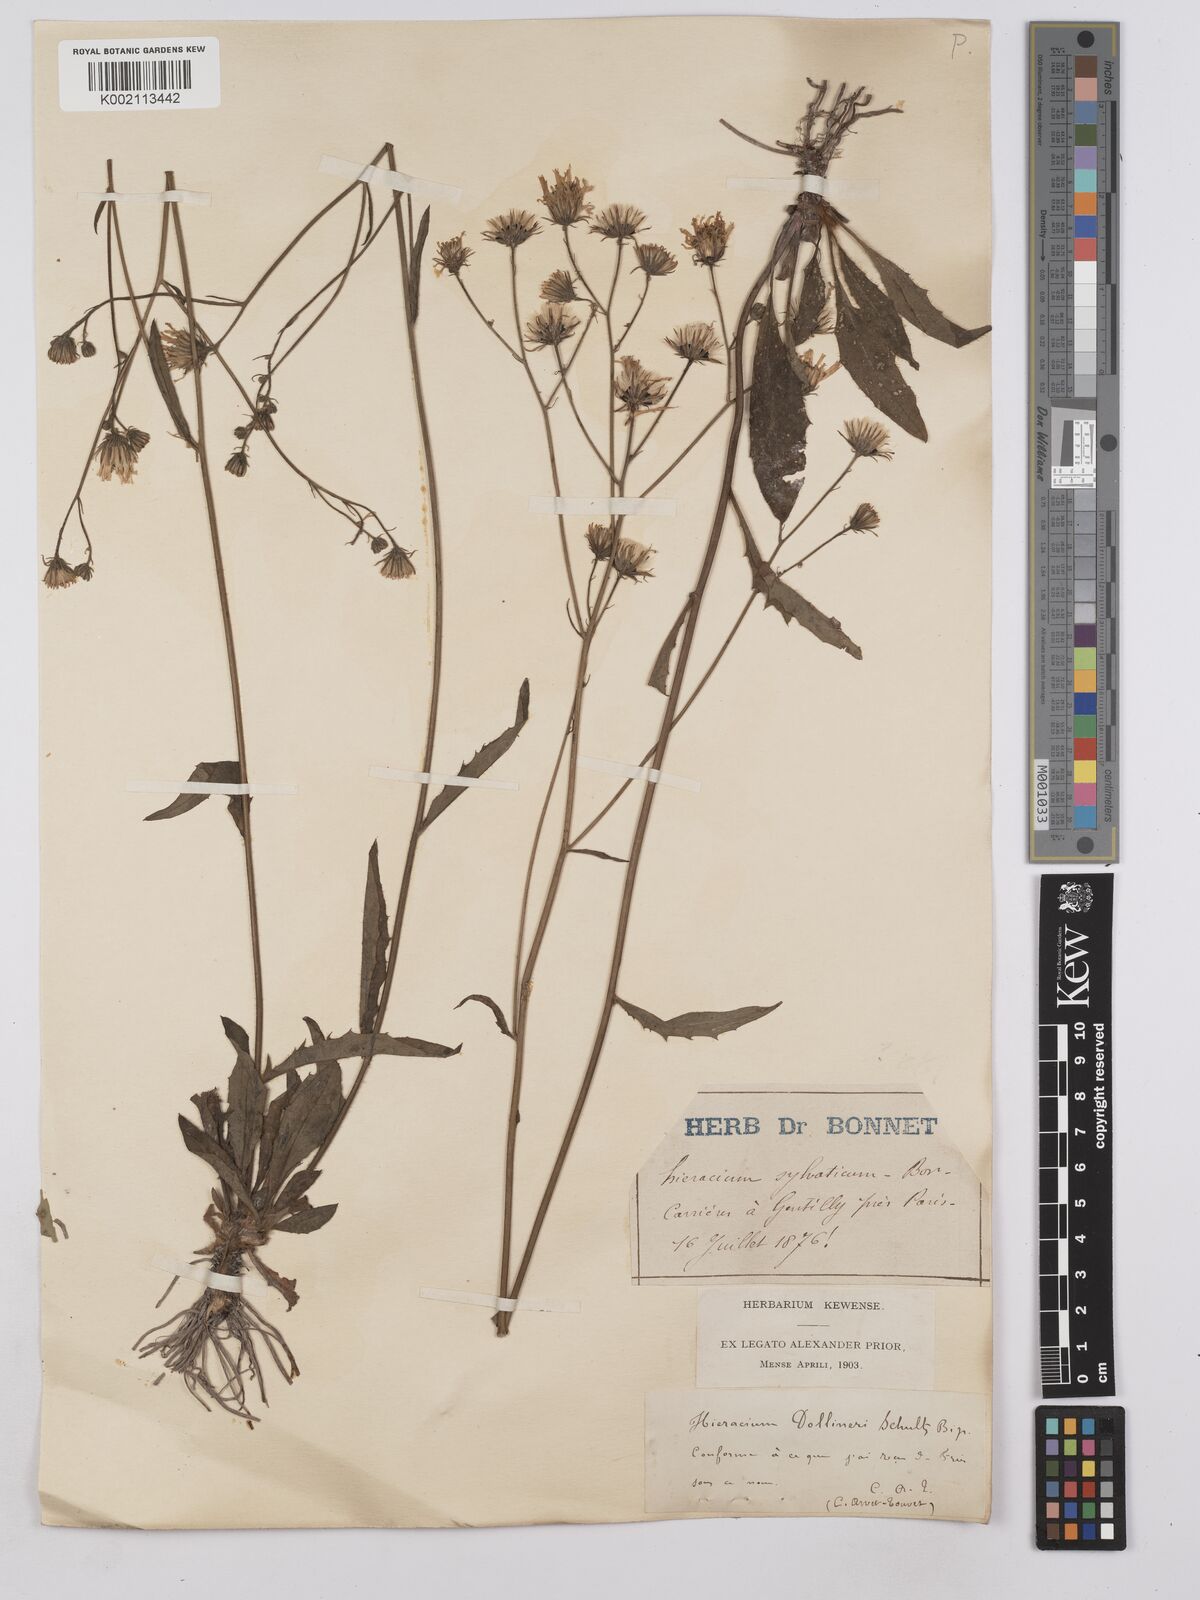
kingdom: Plantae
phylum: Tracheophyta
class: Magnoliopsida
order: Asterales
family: Asteraceae
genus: Hieracium
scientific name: Hieracium neyranum
